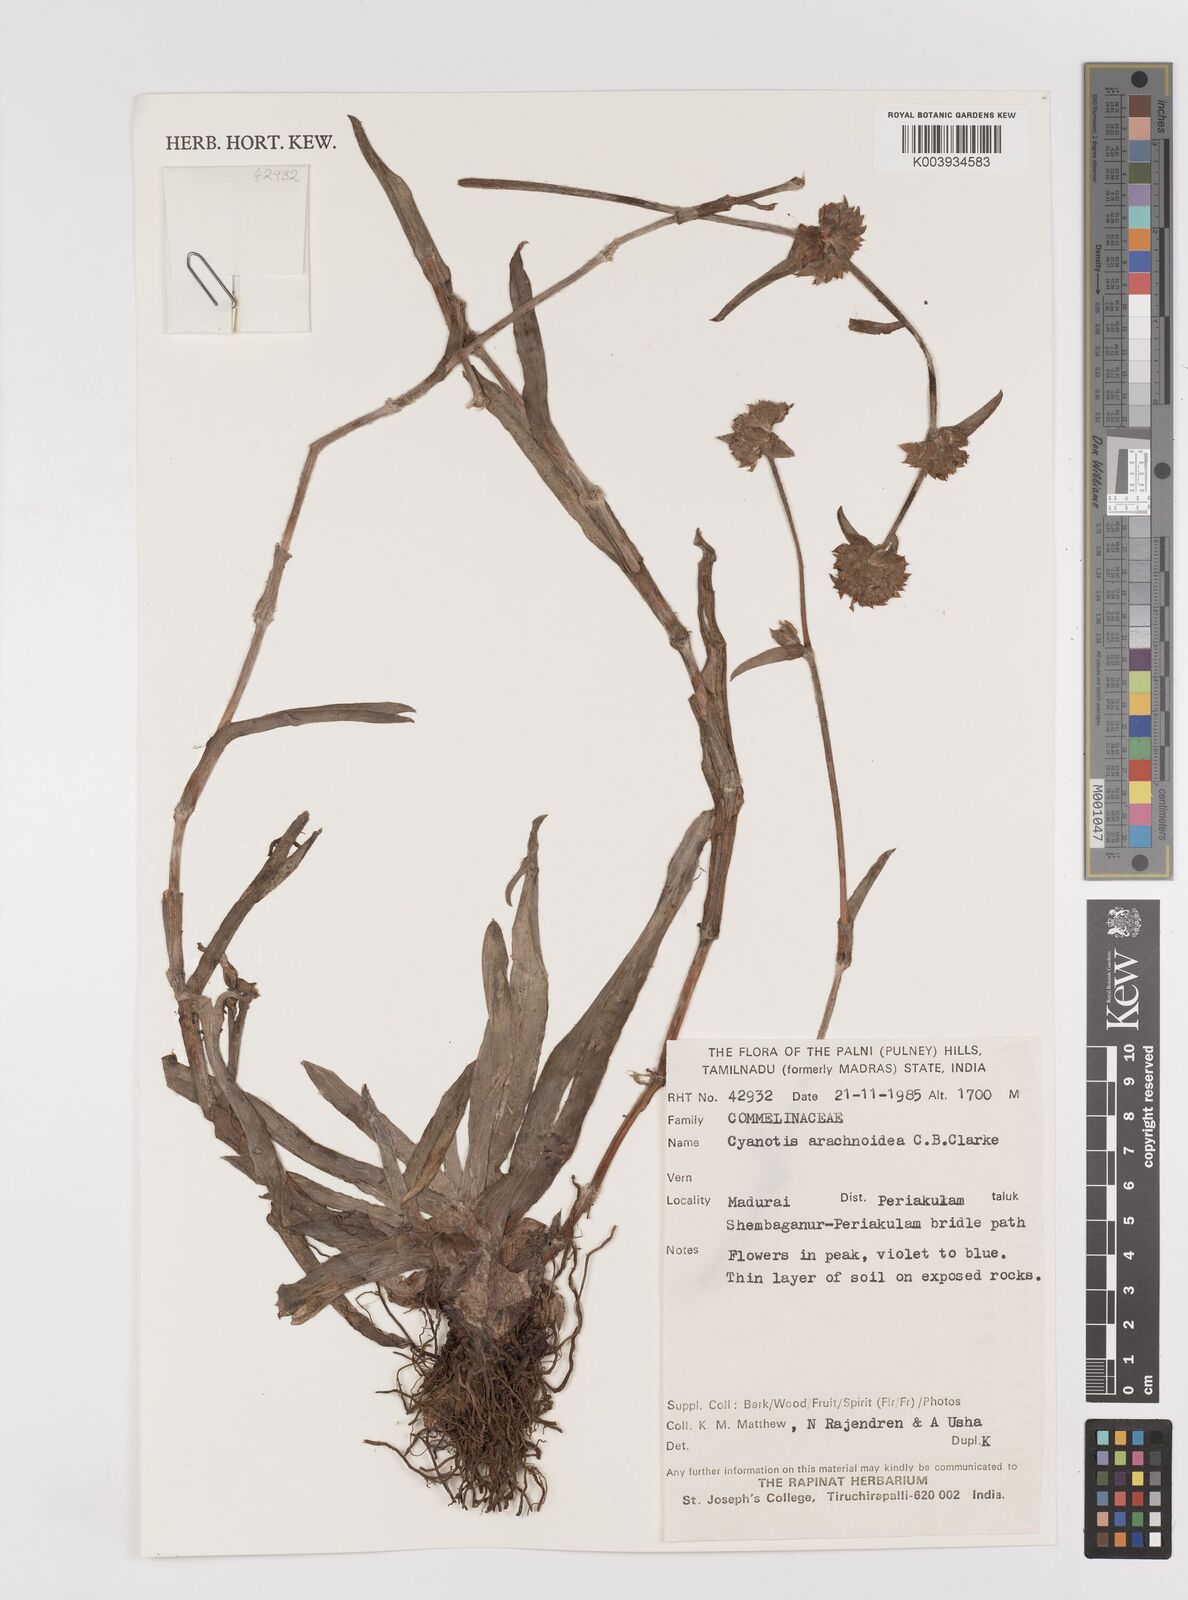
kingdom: Plantae
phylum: Tracheophyta
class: Liliopsida
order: Commelinales
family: Commelinaceae
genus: Cyanotis
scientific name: Cyanotis arachnoidea
